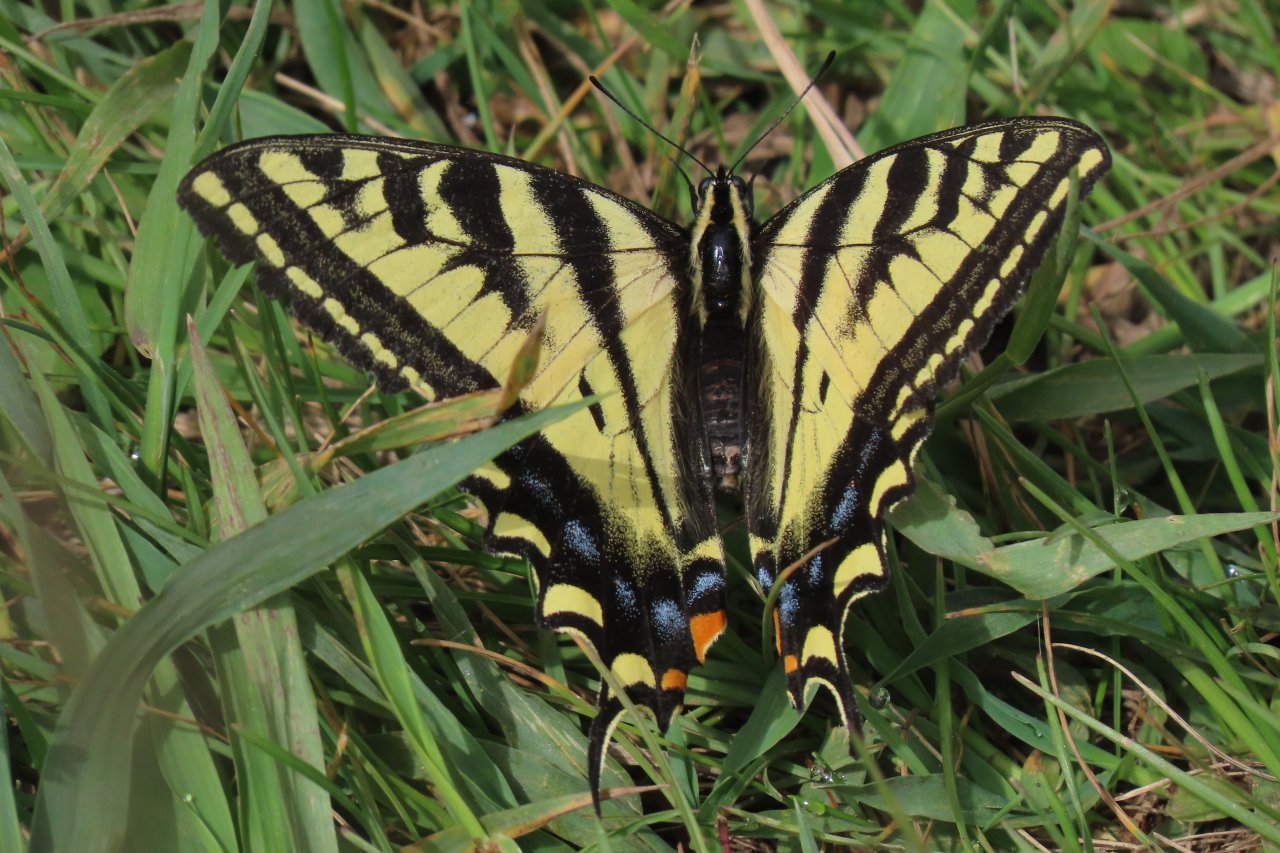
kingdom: Animalia
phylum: Arthropoda
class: Insecta
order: Lepidoptera
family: Papilionidae
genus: Pterourus
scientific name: Pterourus rutulus
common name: Western Tiger Swallowtail
